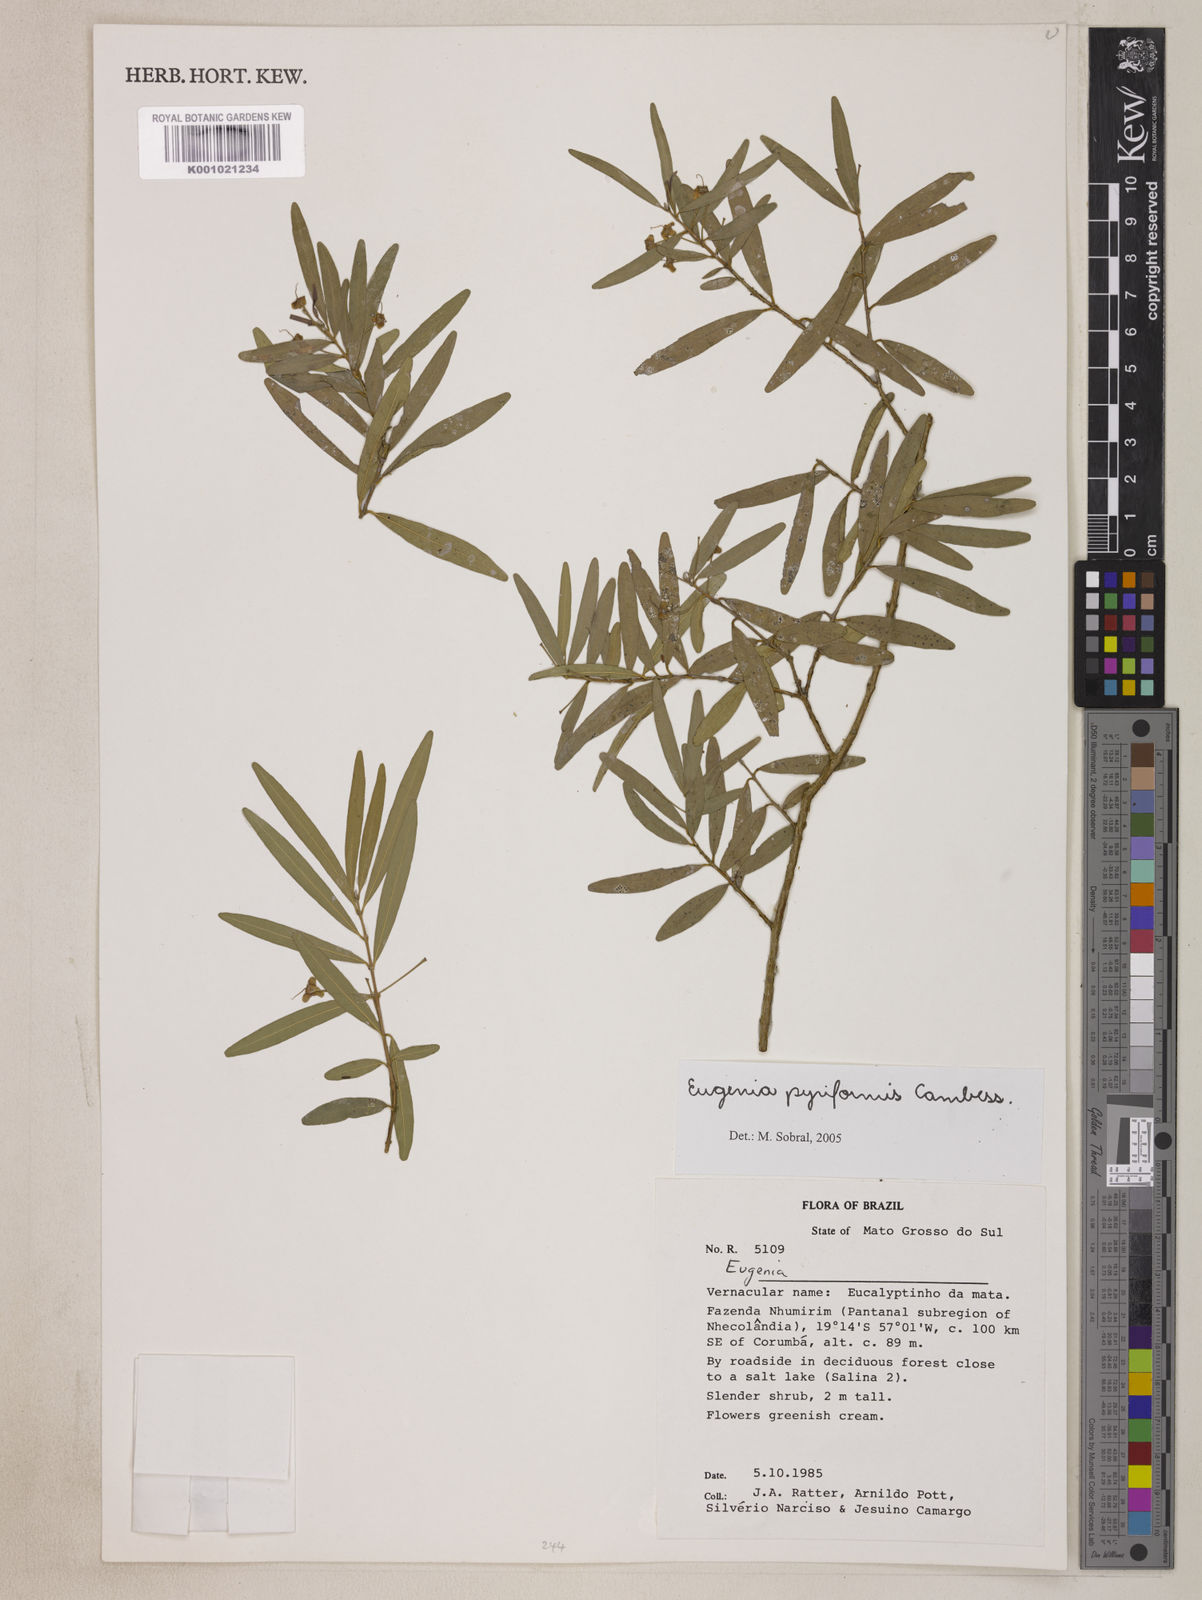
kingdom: Plantae
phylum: Tracheophyta
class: Magnoliopsida
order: Myrtales
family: Myrtaceae
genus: Eugenia
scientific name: Eugenia pyriformis
